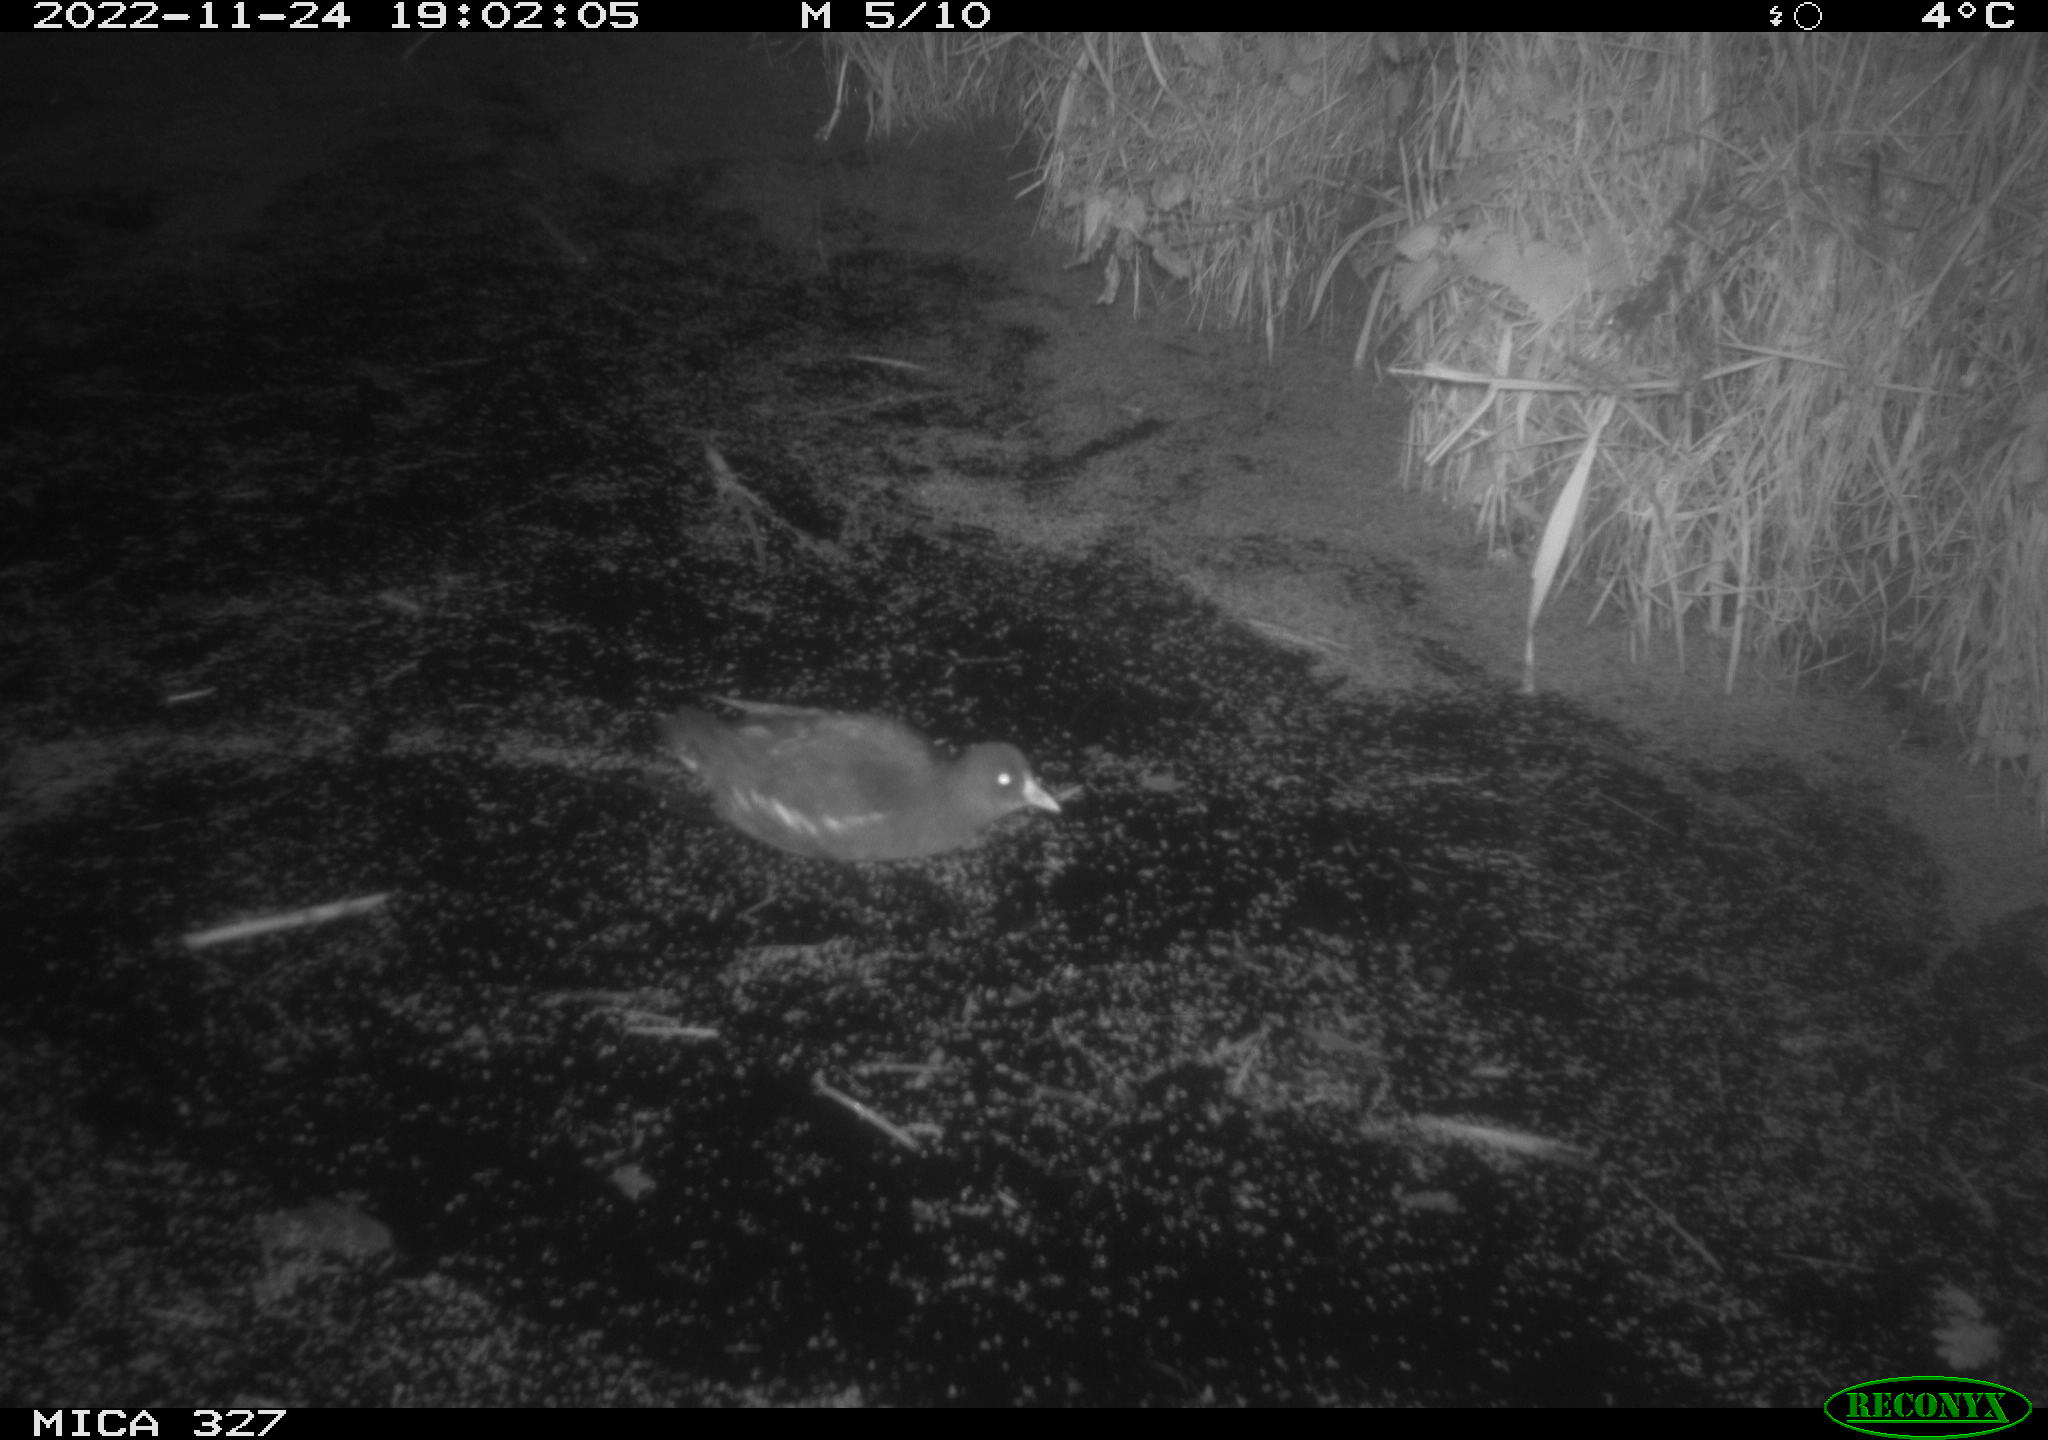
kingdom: Animalia
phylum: Chordata
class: Aves
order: Gruiformes
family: Rallidae
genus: Gallinula
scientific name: Gallinula chloropus
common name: Common moorhen
